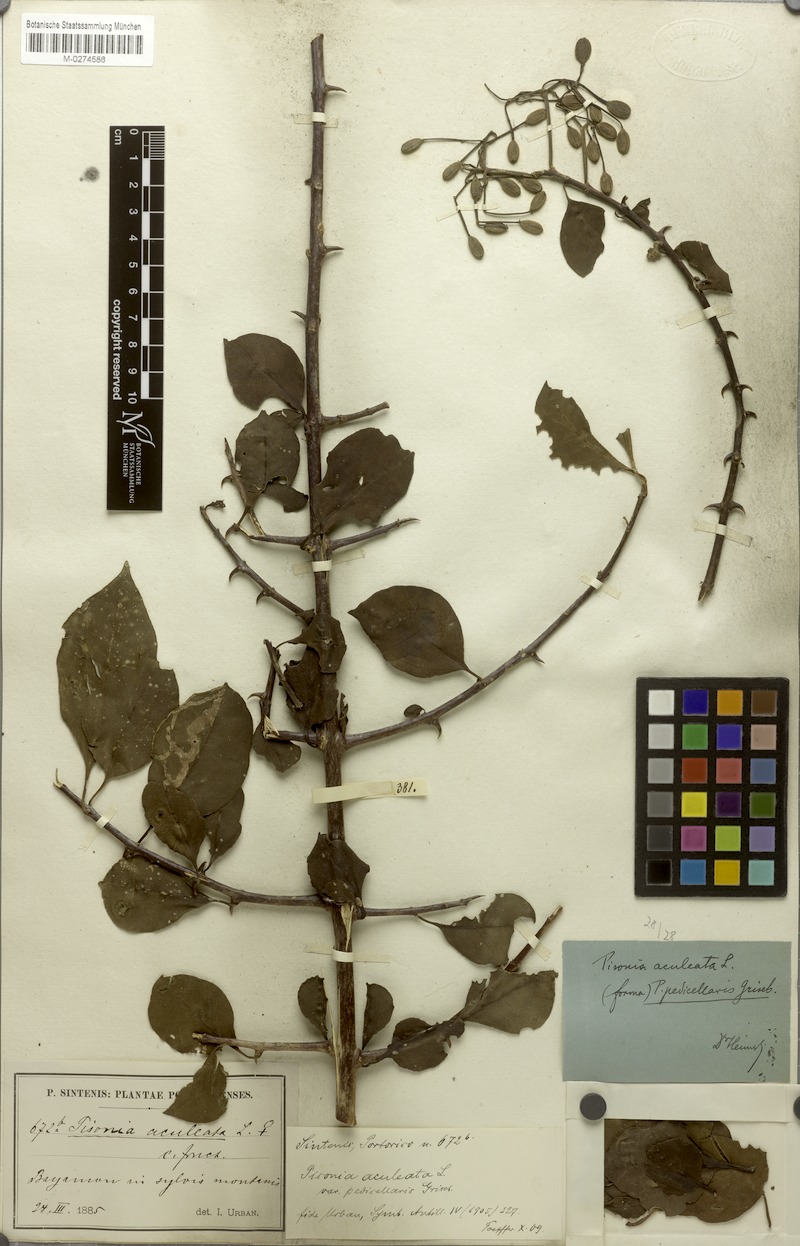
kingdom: Plantae
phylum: Tracheophyta
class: Magnoliopsida
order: Caryophyllales
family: Nyctaginaceae
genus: Pisonia
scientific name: Pisonia aculeata
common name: Cockspur vine
